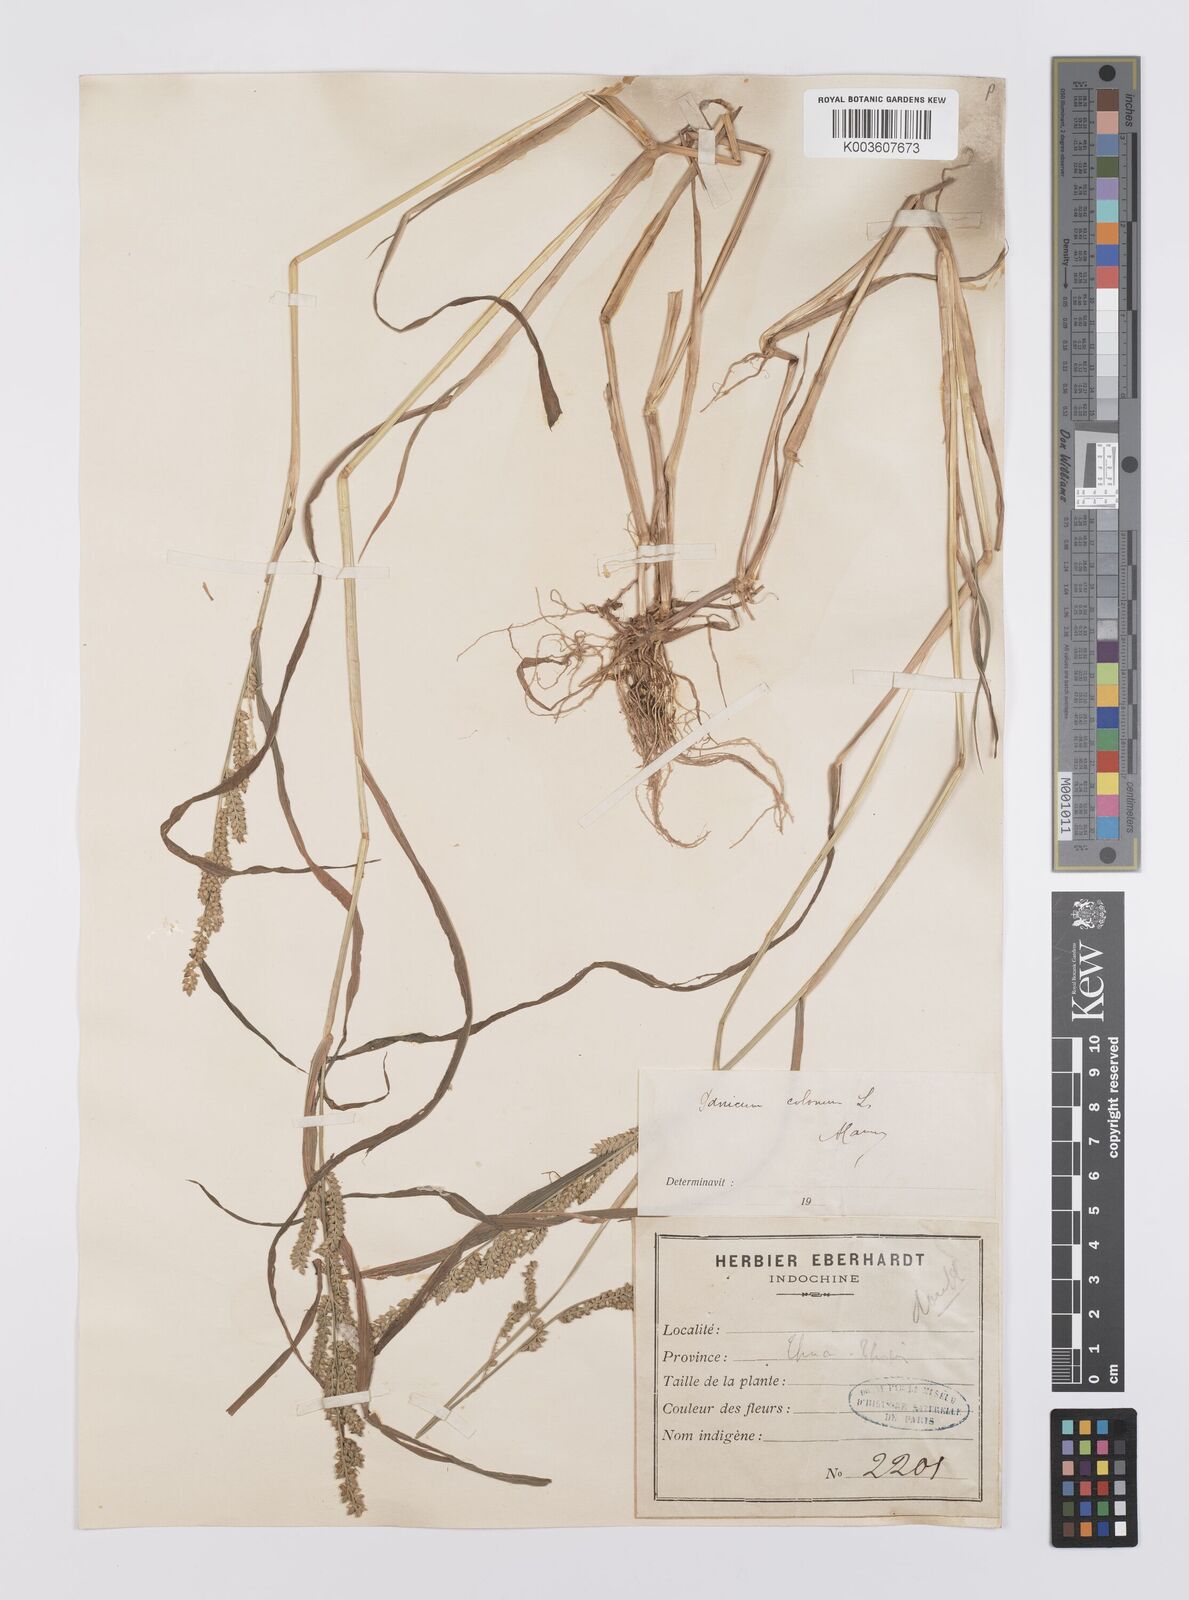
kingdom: Plantae
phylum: Tracheophyta
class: Liliopsida
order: Poales
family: Poaceae
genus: Echinochloa
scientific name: Echinochloa colonum
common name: Jungle rice
